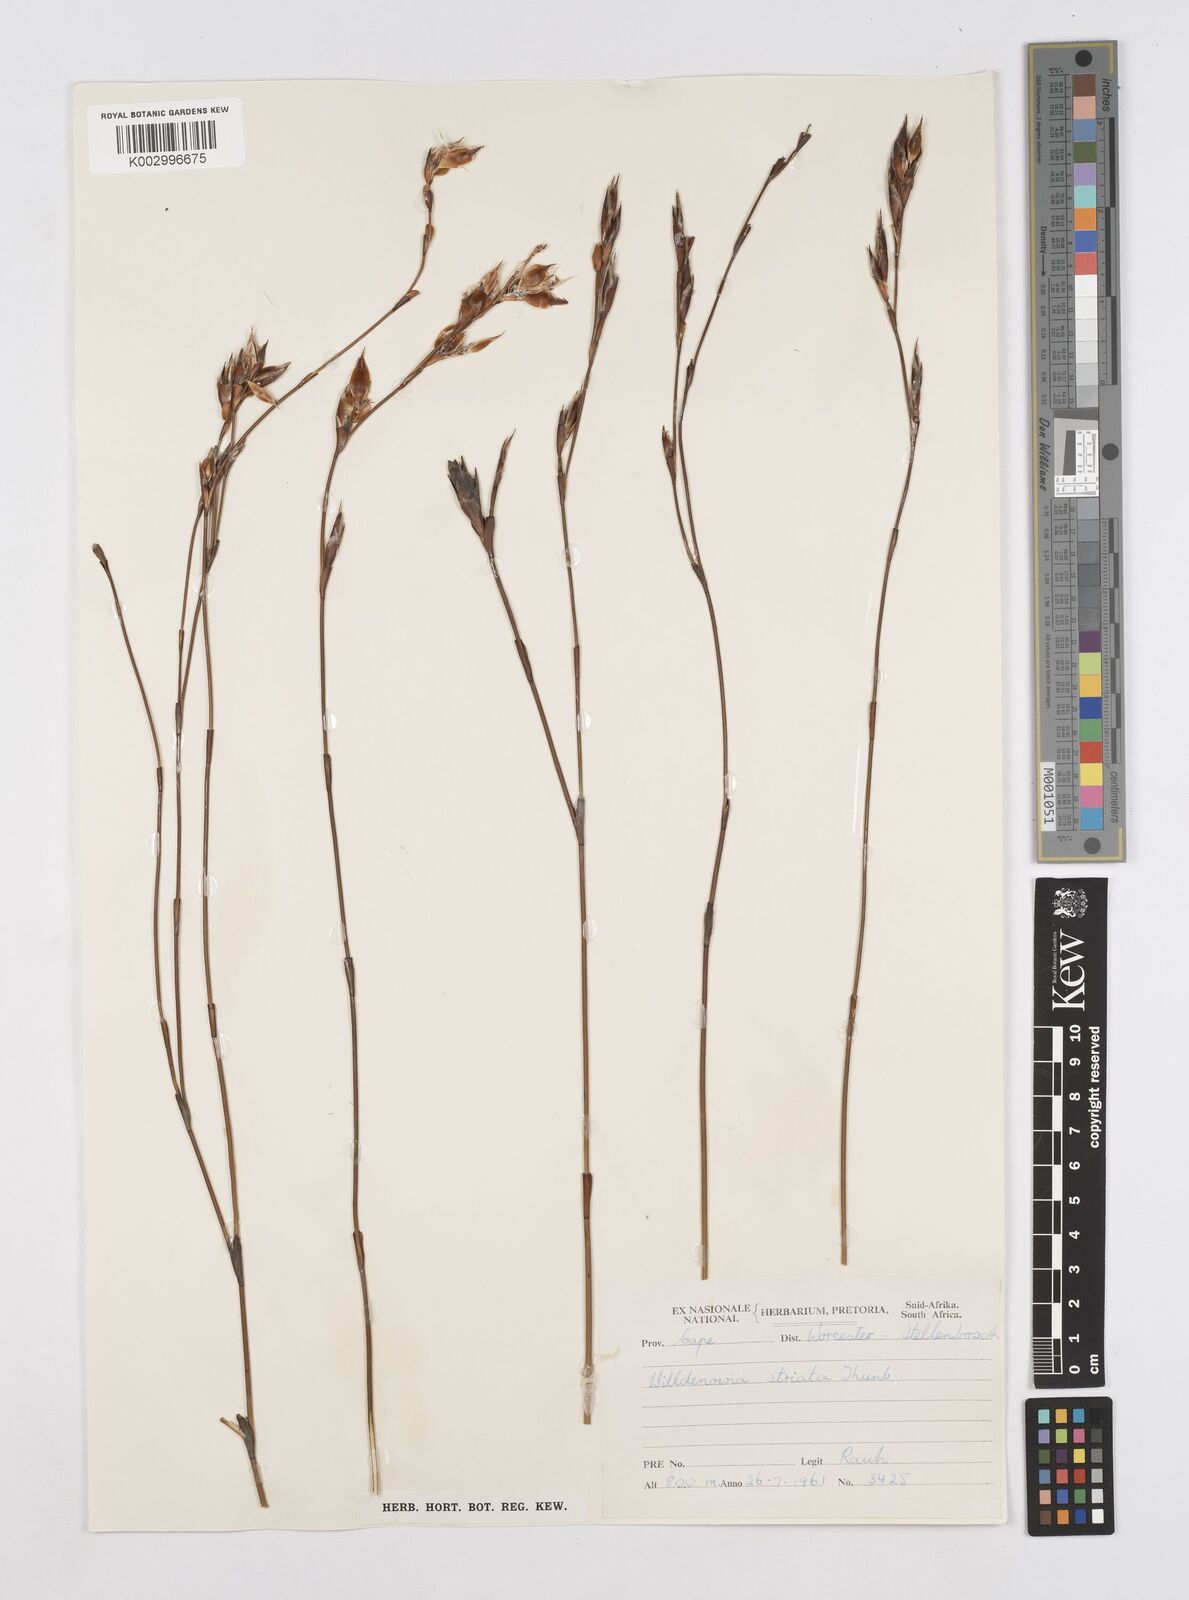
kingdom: Plantae
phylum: Tracheophyta
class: Liliopsida
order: Poales
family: Restionaceae
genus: Willdenowia
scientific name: Willdenowia glomerata
